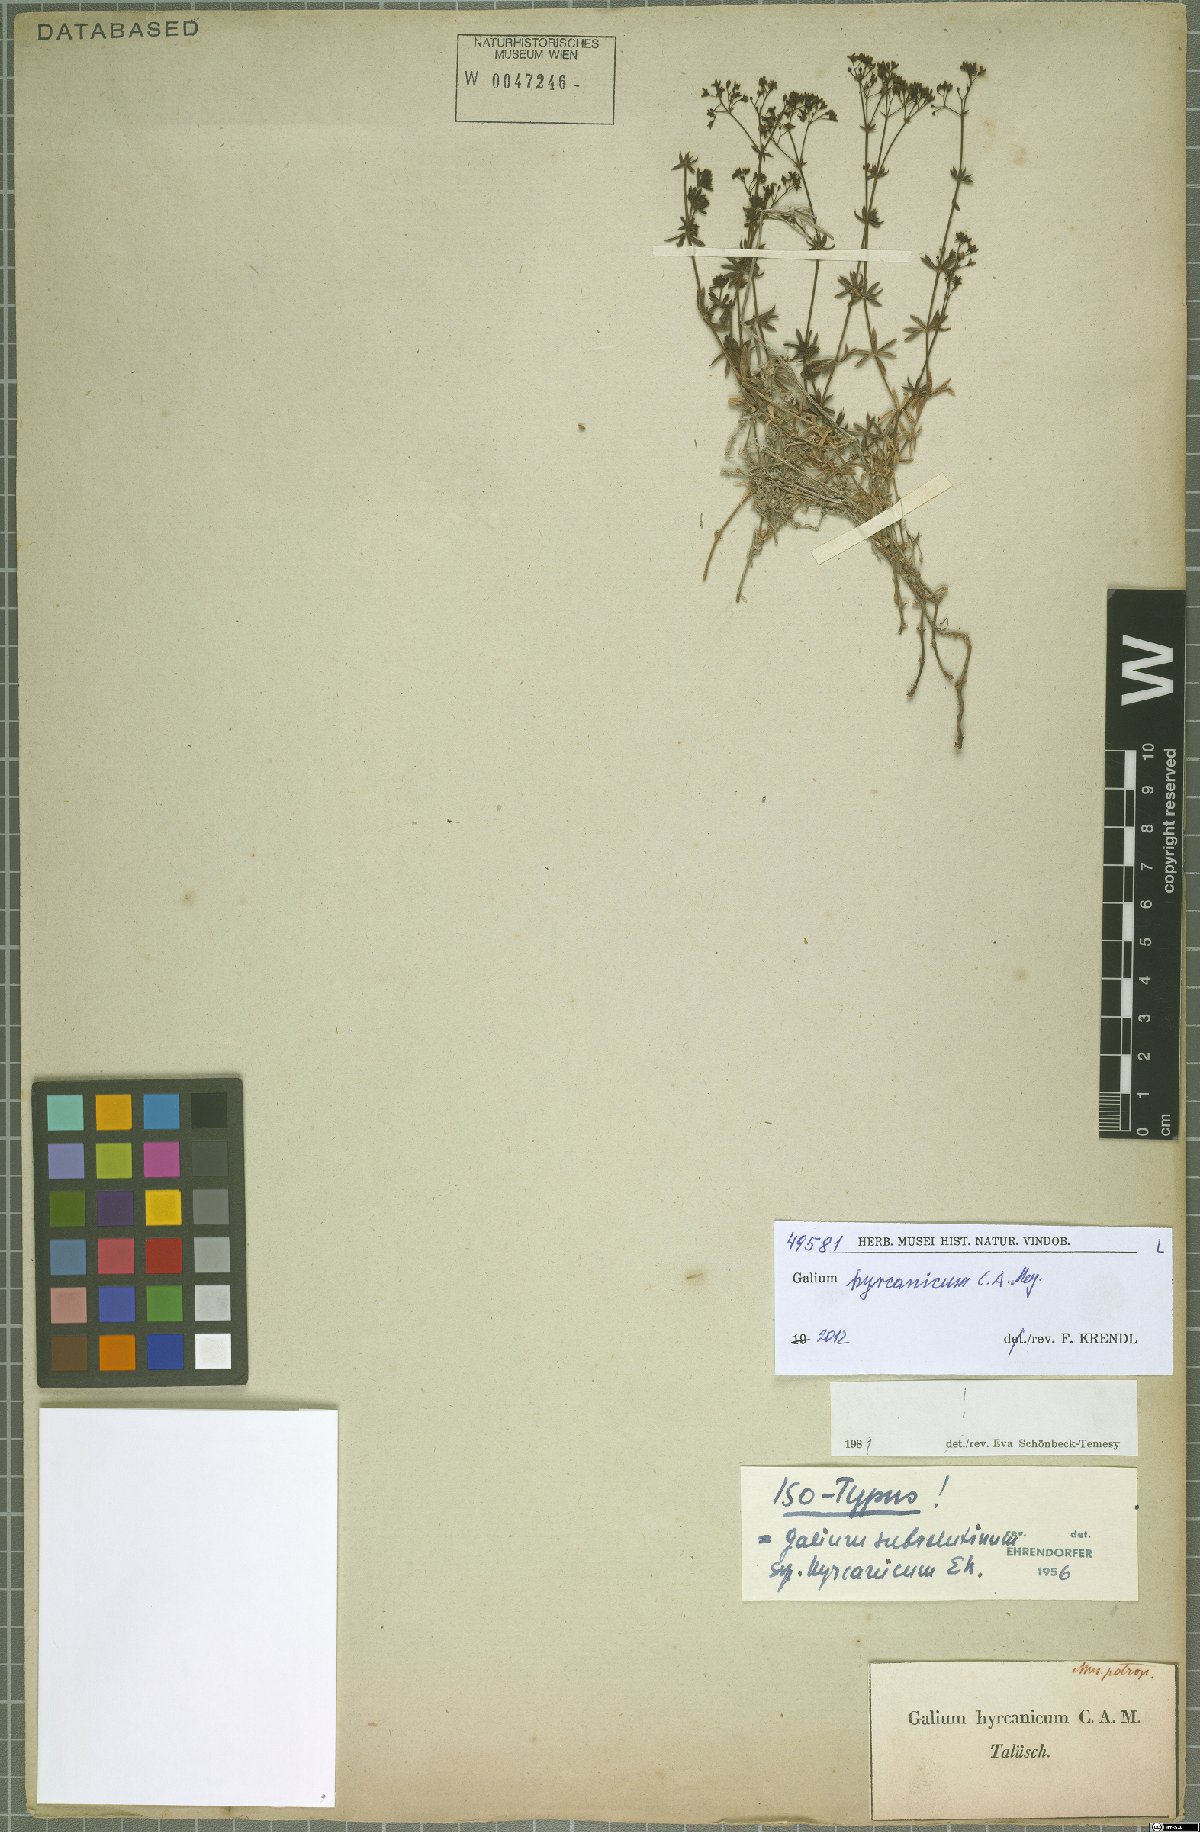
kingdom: Plantae
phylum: Tracheophyta
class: Magnoliopsida
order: Gentianales
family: Rubiaceae
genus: Galium
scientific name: Galium hyrcanicum
